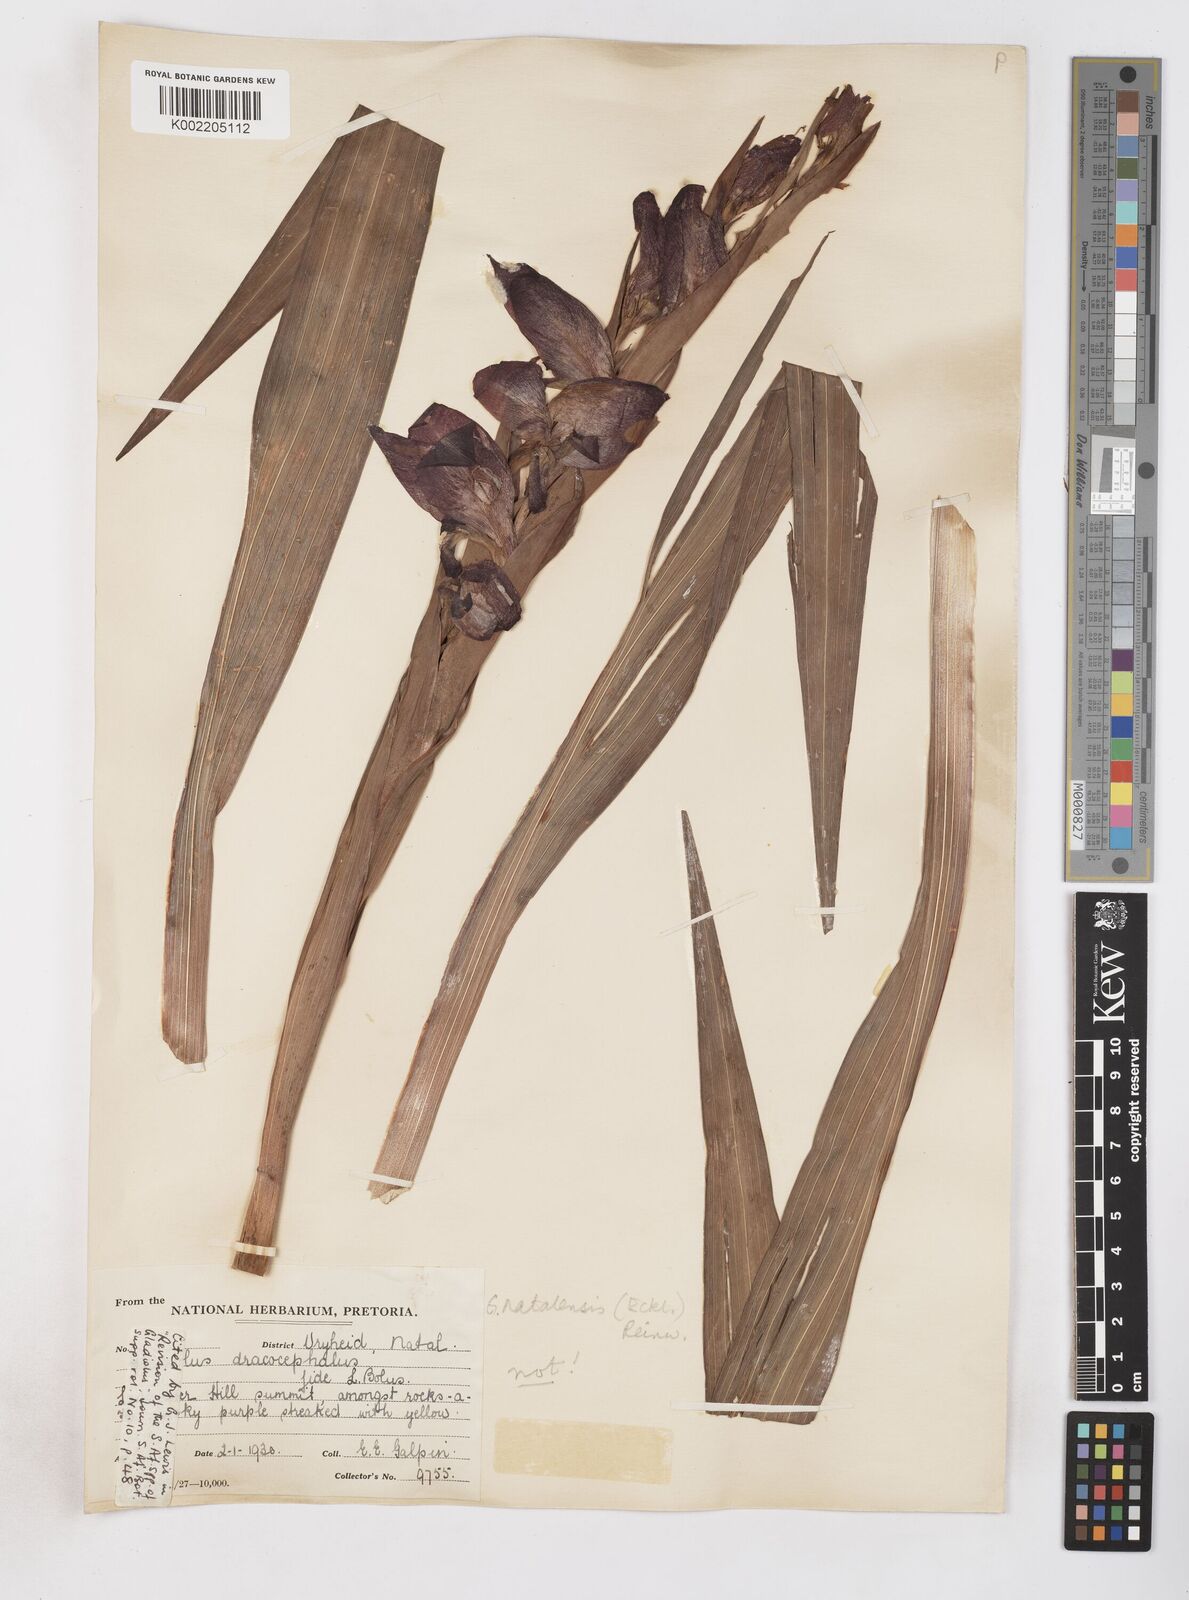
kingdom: Plantae
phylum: Tracheophyta
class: Liliopsida
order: Asparagales
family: Iridaceae
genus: Gladiolus
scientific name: Gladiolus dalenii
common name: Cornflag
